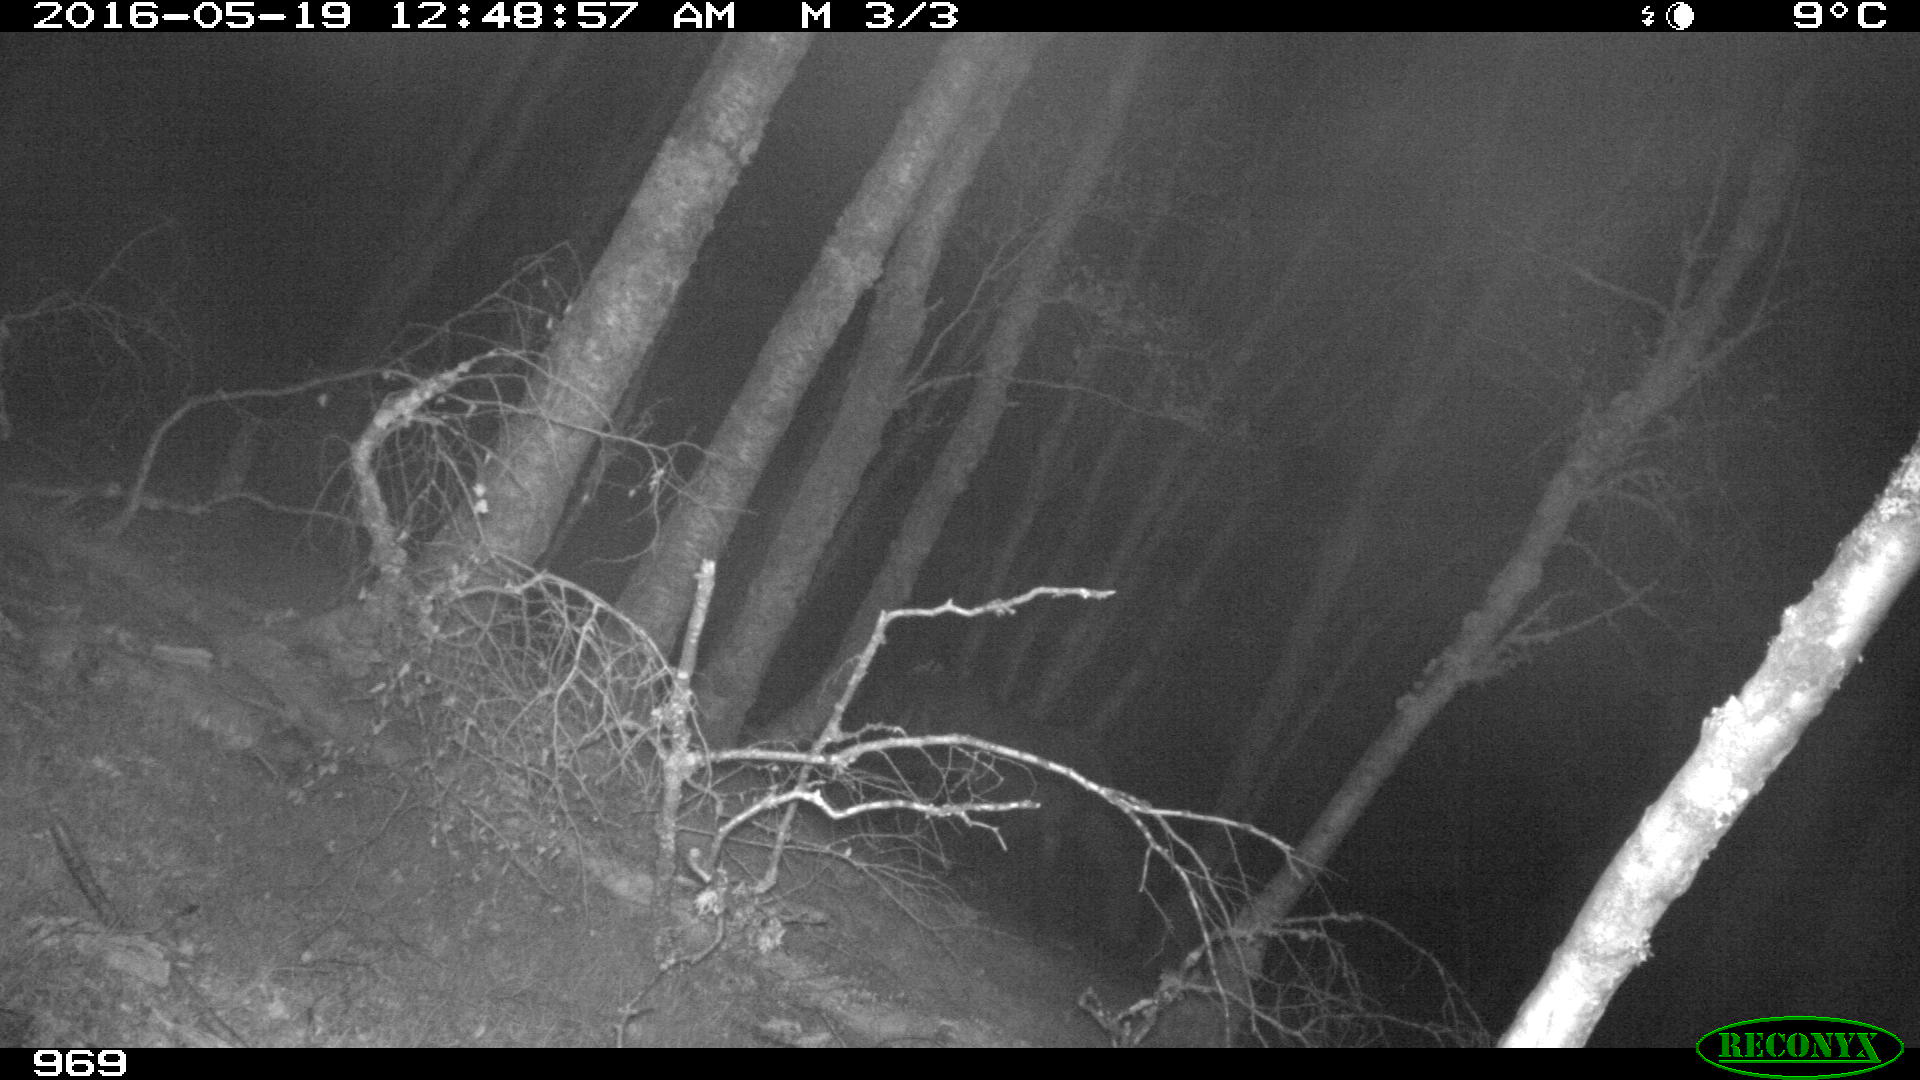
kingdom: Animalia
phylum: Chordata
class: Mammalia
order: Perissodactyla
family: Equidae
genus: Equus
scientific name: Equus caballus
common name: Horse
